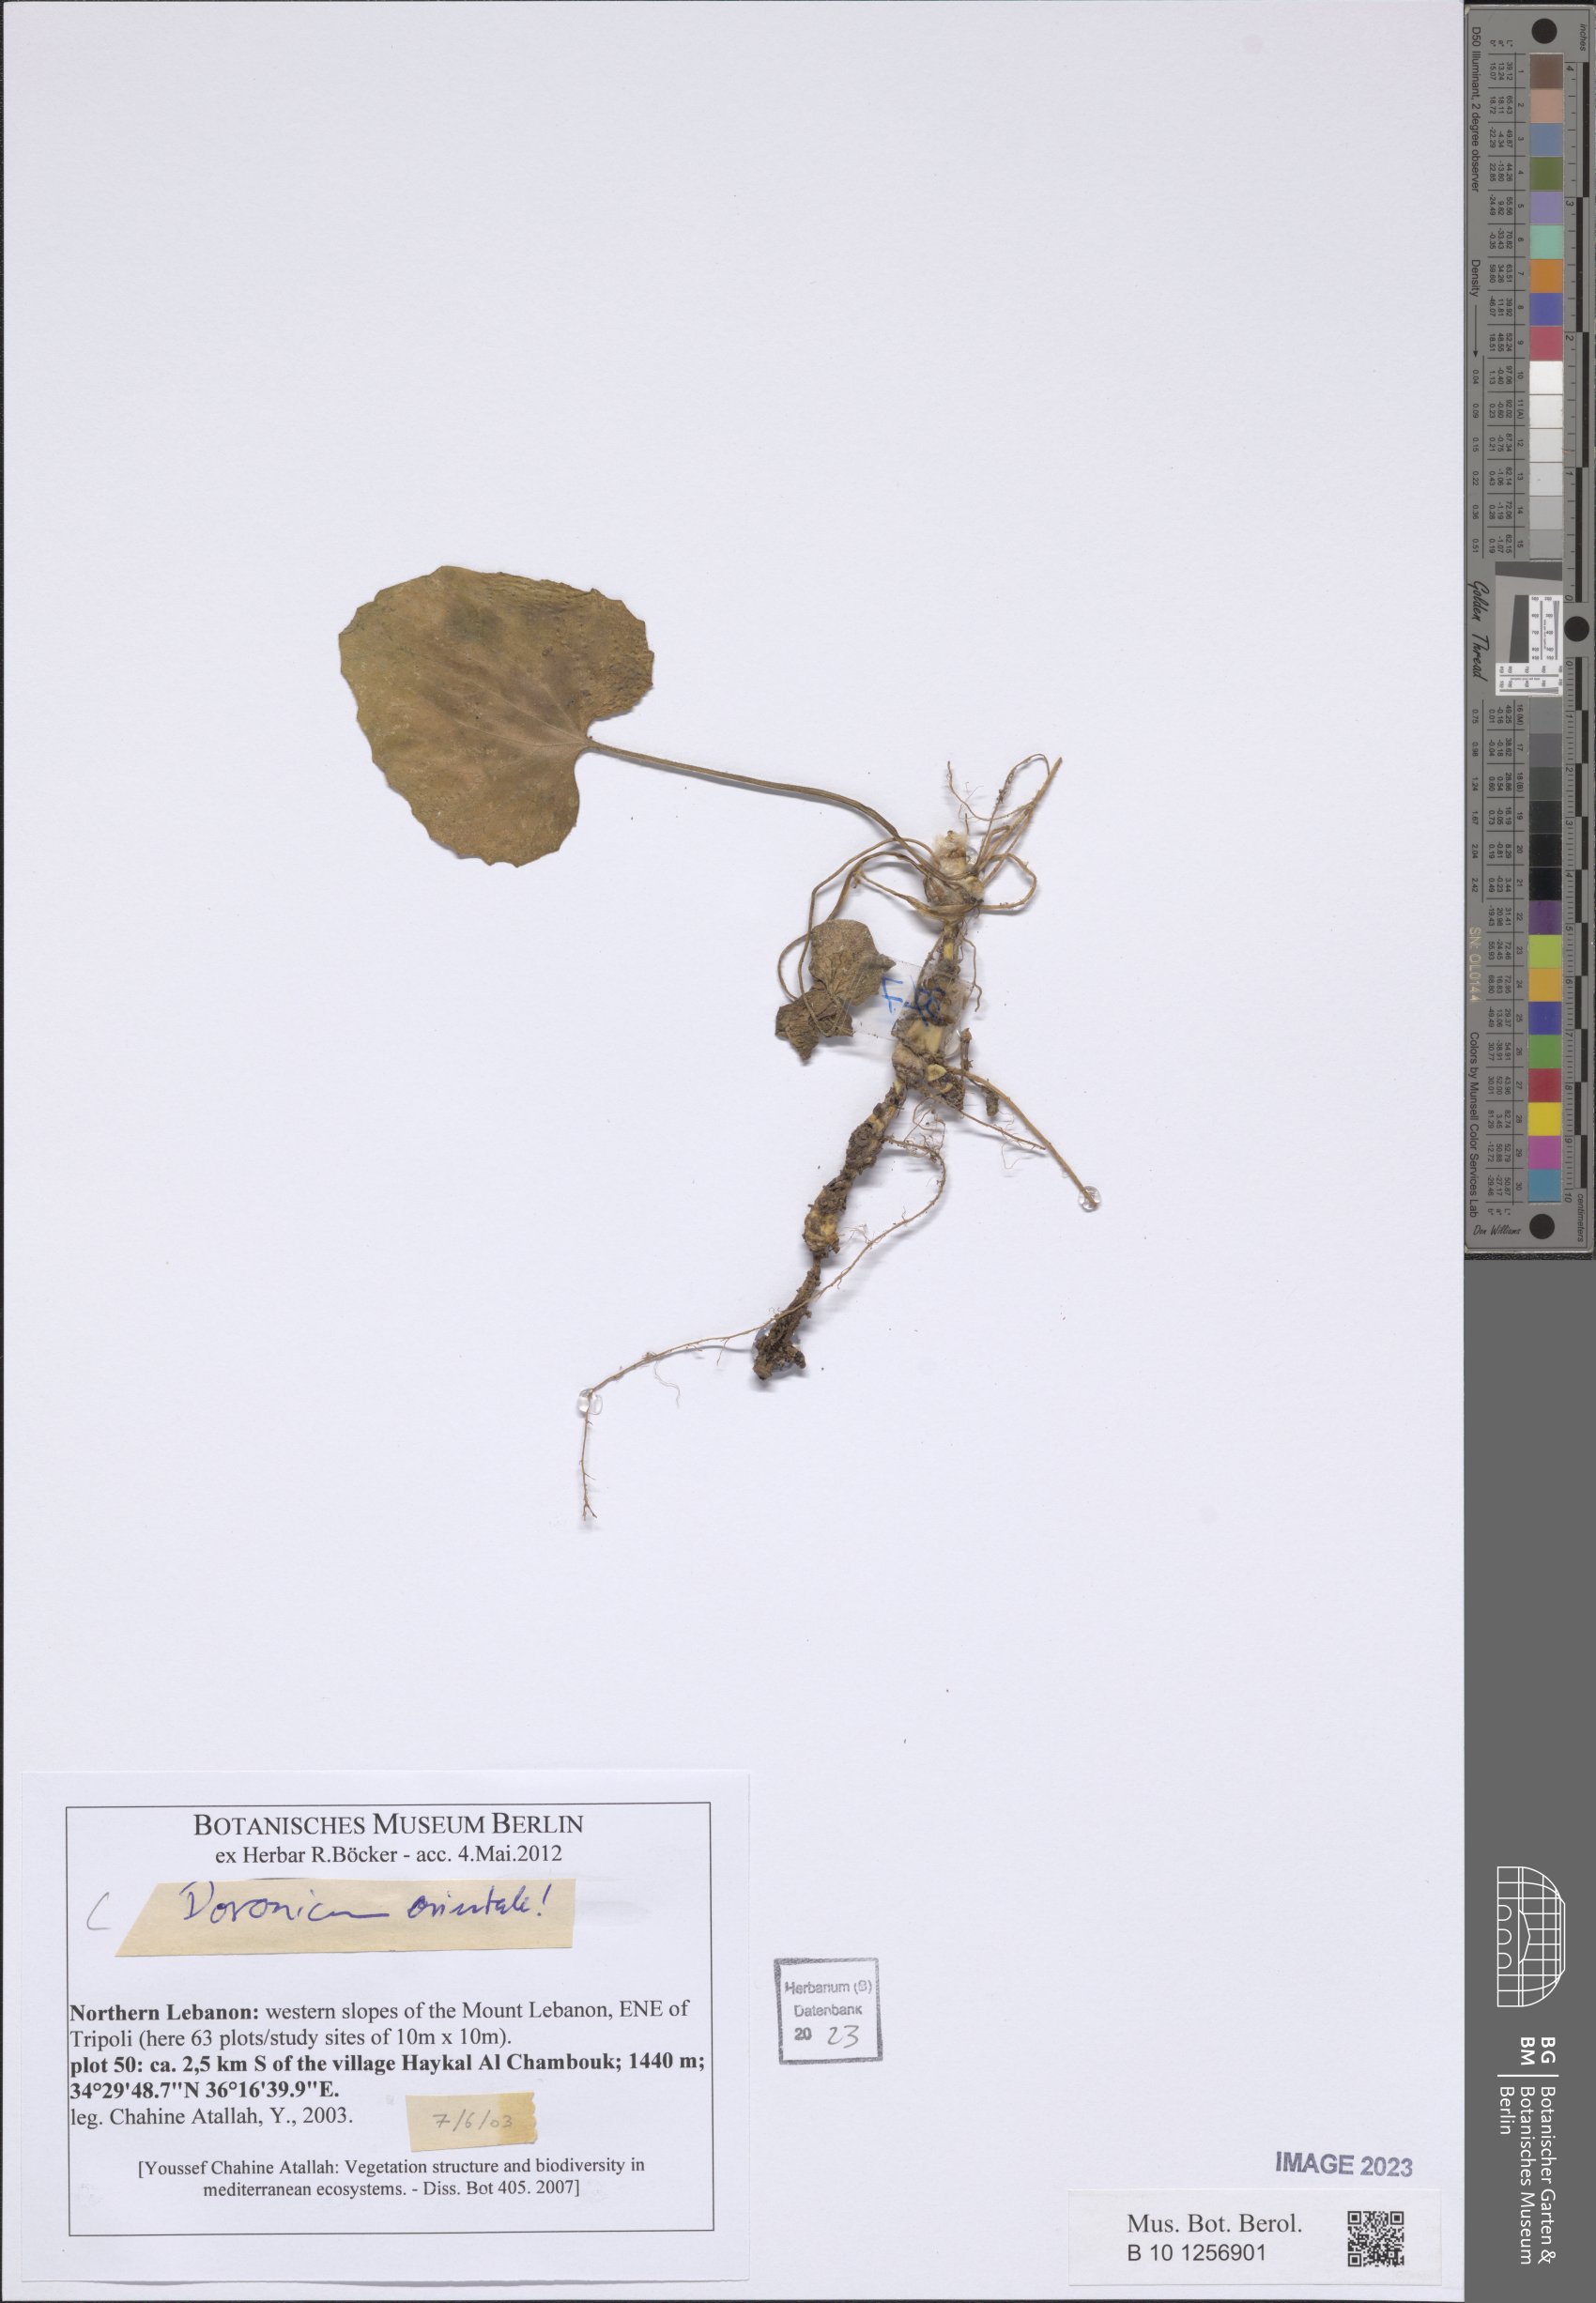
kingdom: Plantae
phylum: Tracheophyta
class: Magnoliopsida
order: Asterales
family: Asteraceae
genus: Doronicum
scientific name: Doronicum orientale
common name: Oriental leopard's-bane
